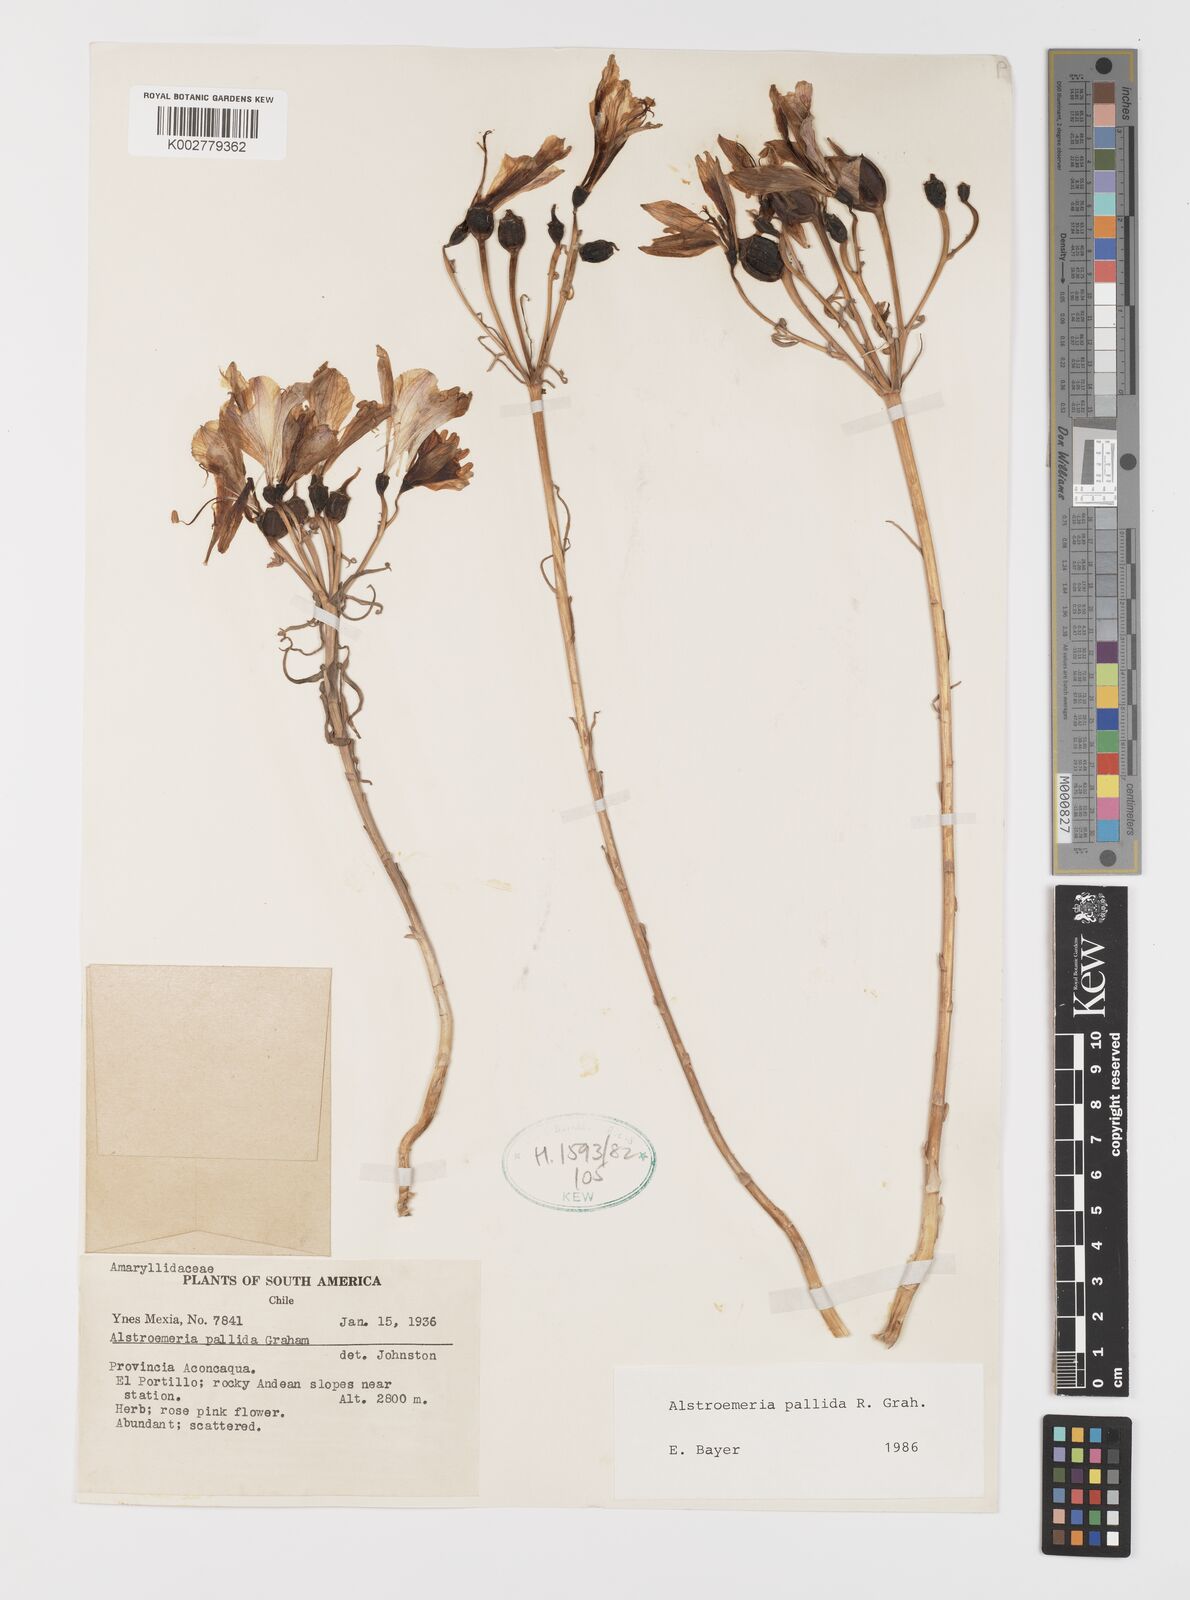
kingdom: Plantae
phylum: Tracheophyta
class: Liliopsida
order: Liliales
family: Alstroemeriaceae
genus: Alstroemeria
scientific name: Alstroemeria pallida
